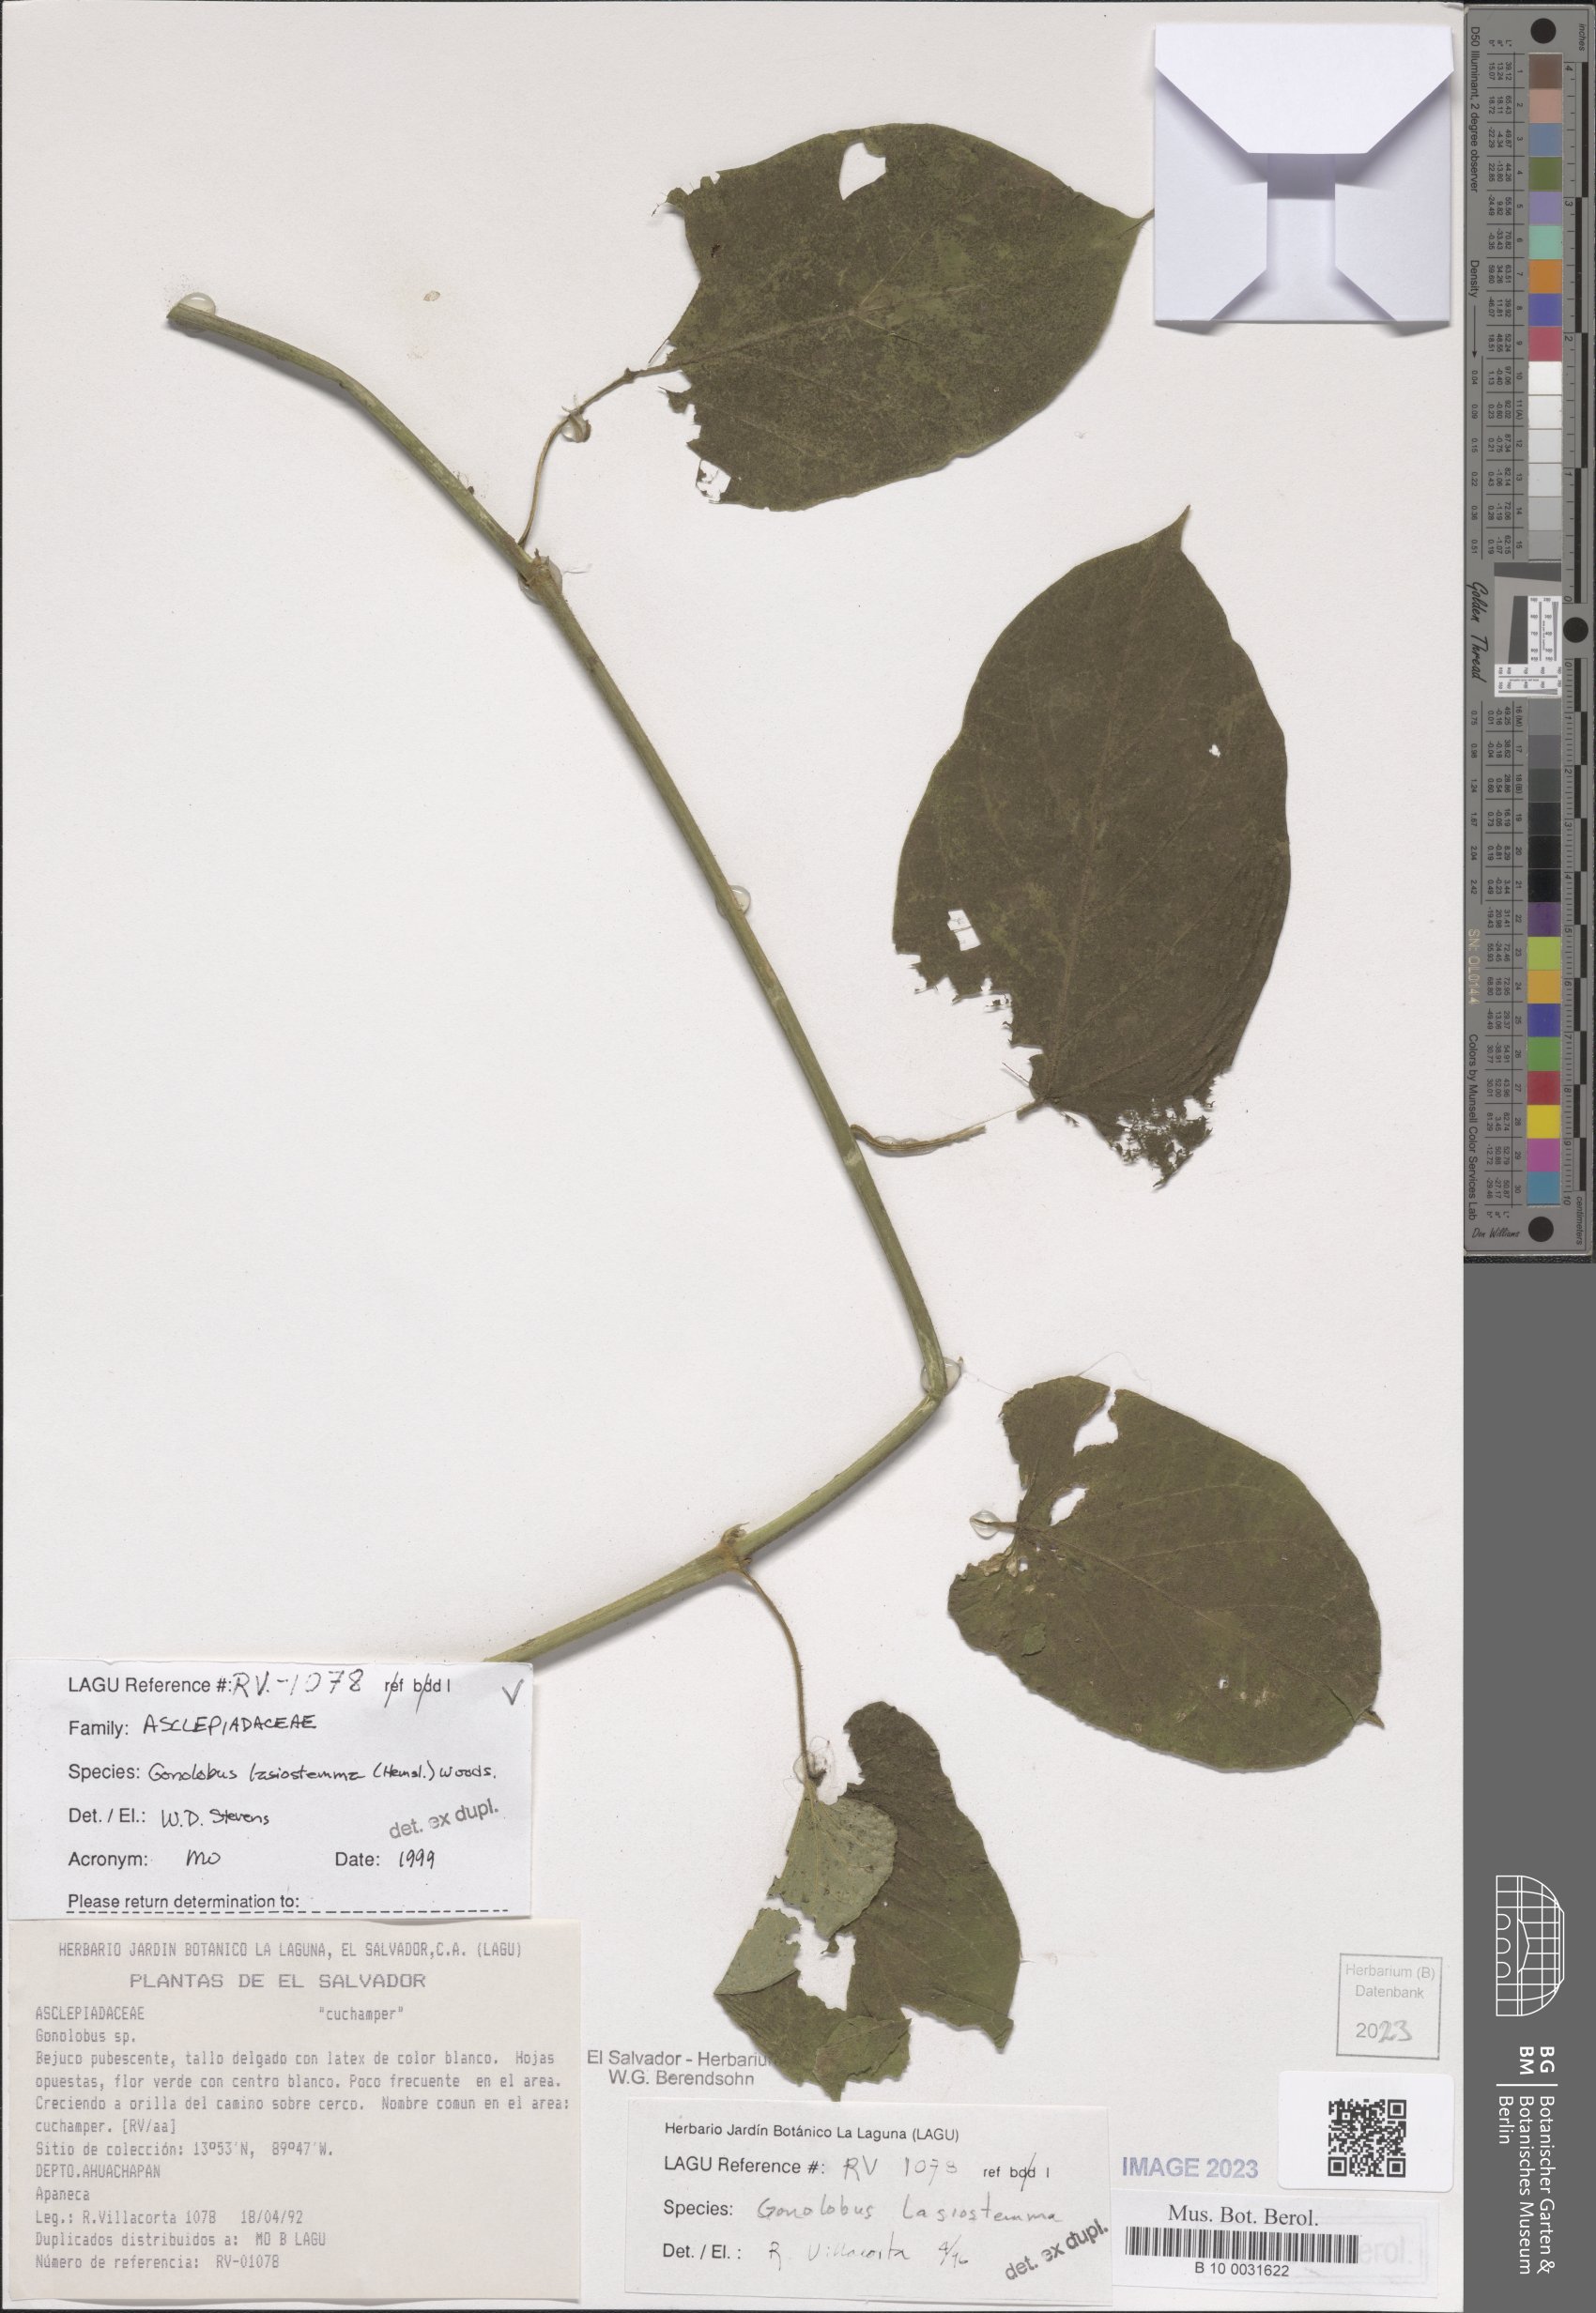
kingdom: Plantae
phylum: Tracheophyta
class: Magnoliopsida
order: Gentianales
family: Apocynaceae
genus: Gonolobus
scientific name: Gonolobus lasiostemma
